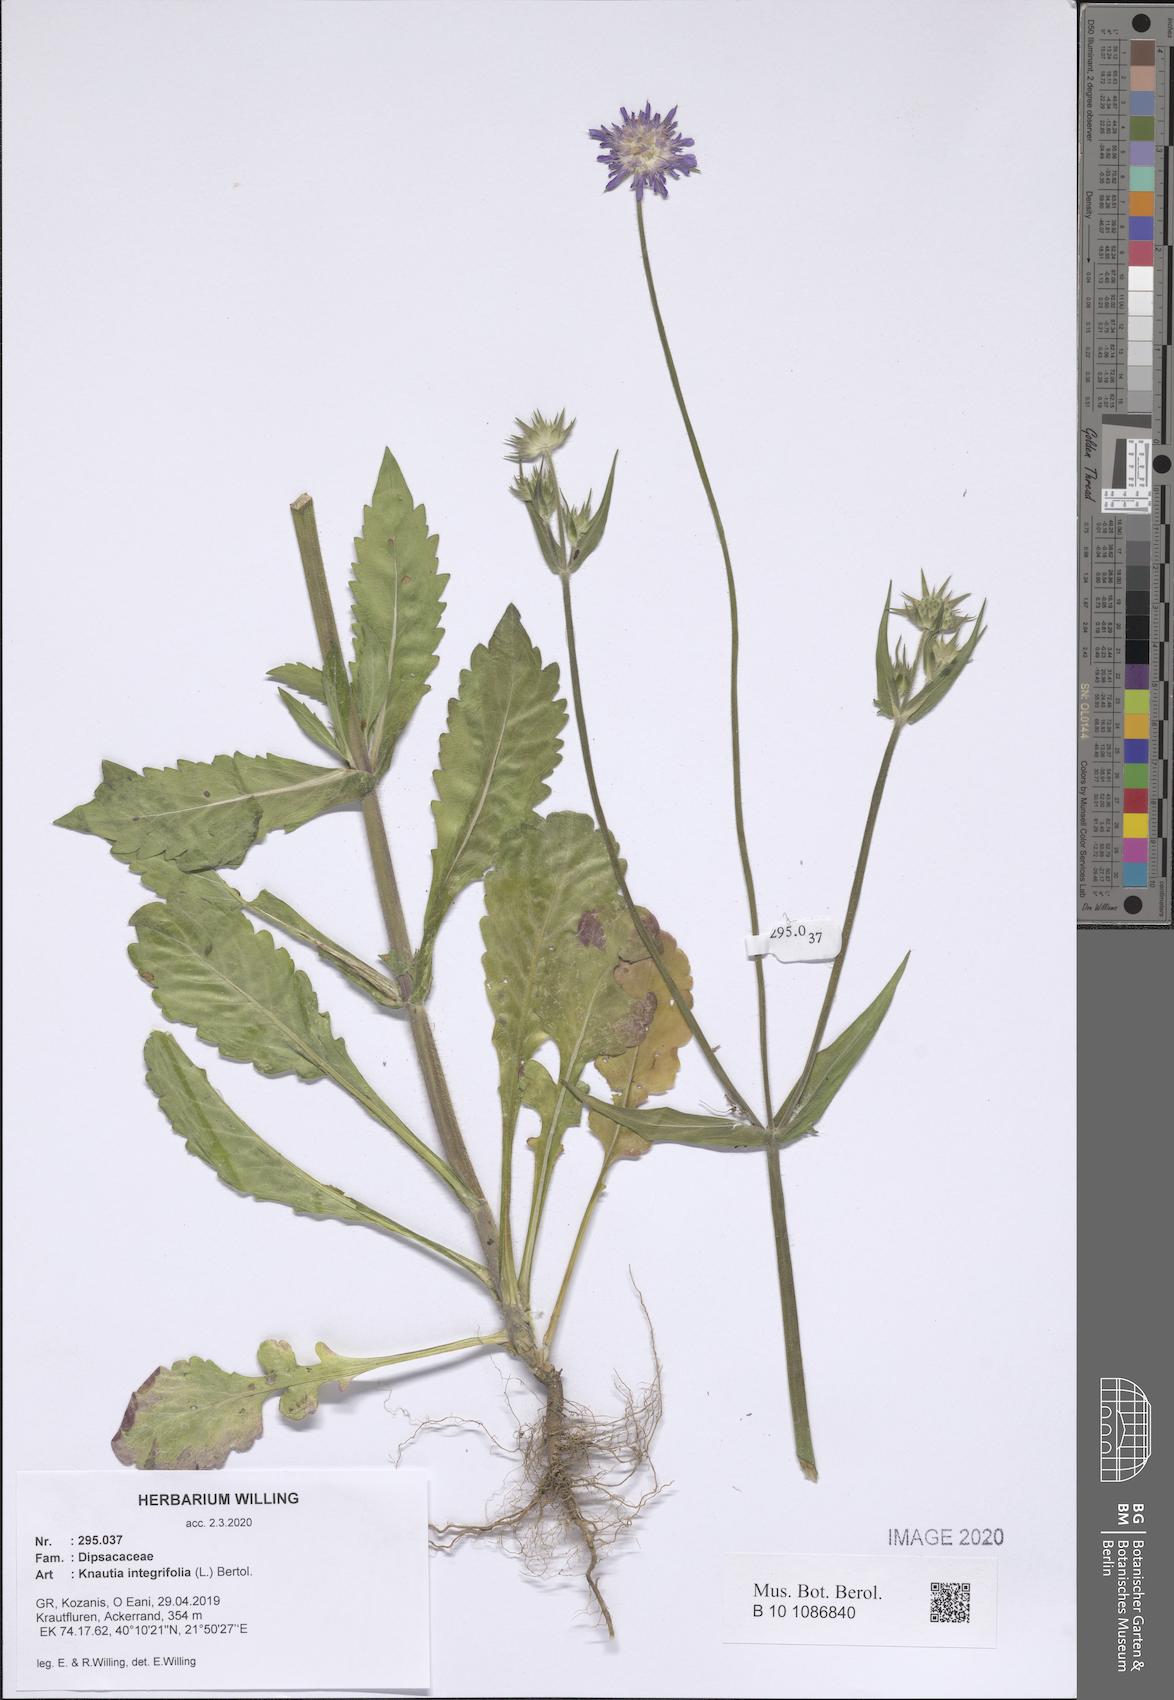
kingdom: Plantae
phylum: Tracheophyta
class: Magnoliopsida
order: Dipsacales
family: Caprifoliaceae
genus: Knautia
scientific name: Knautia integrifolia
